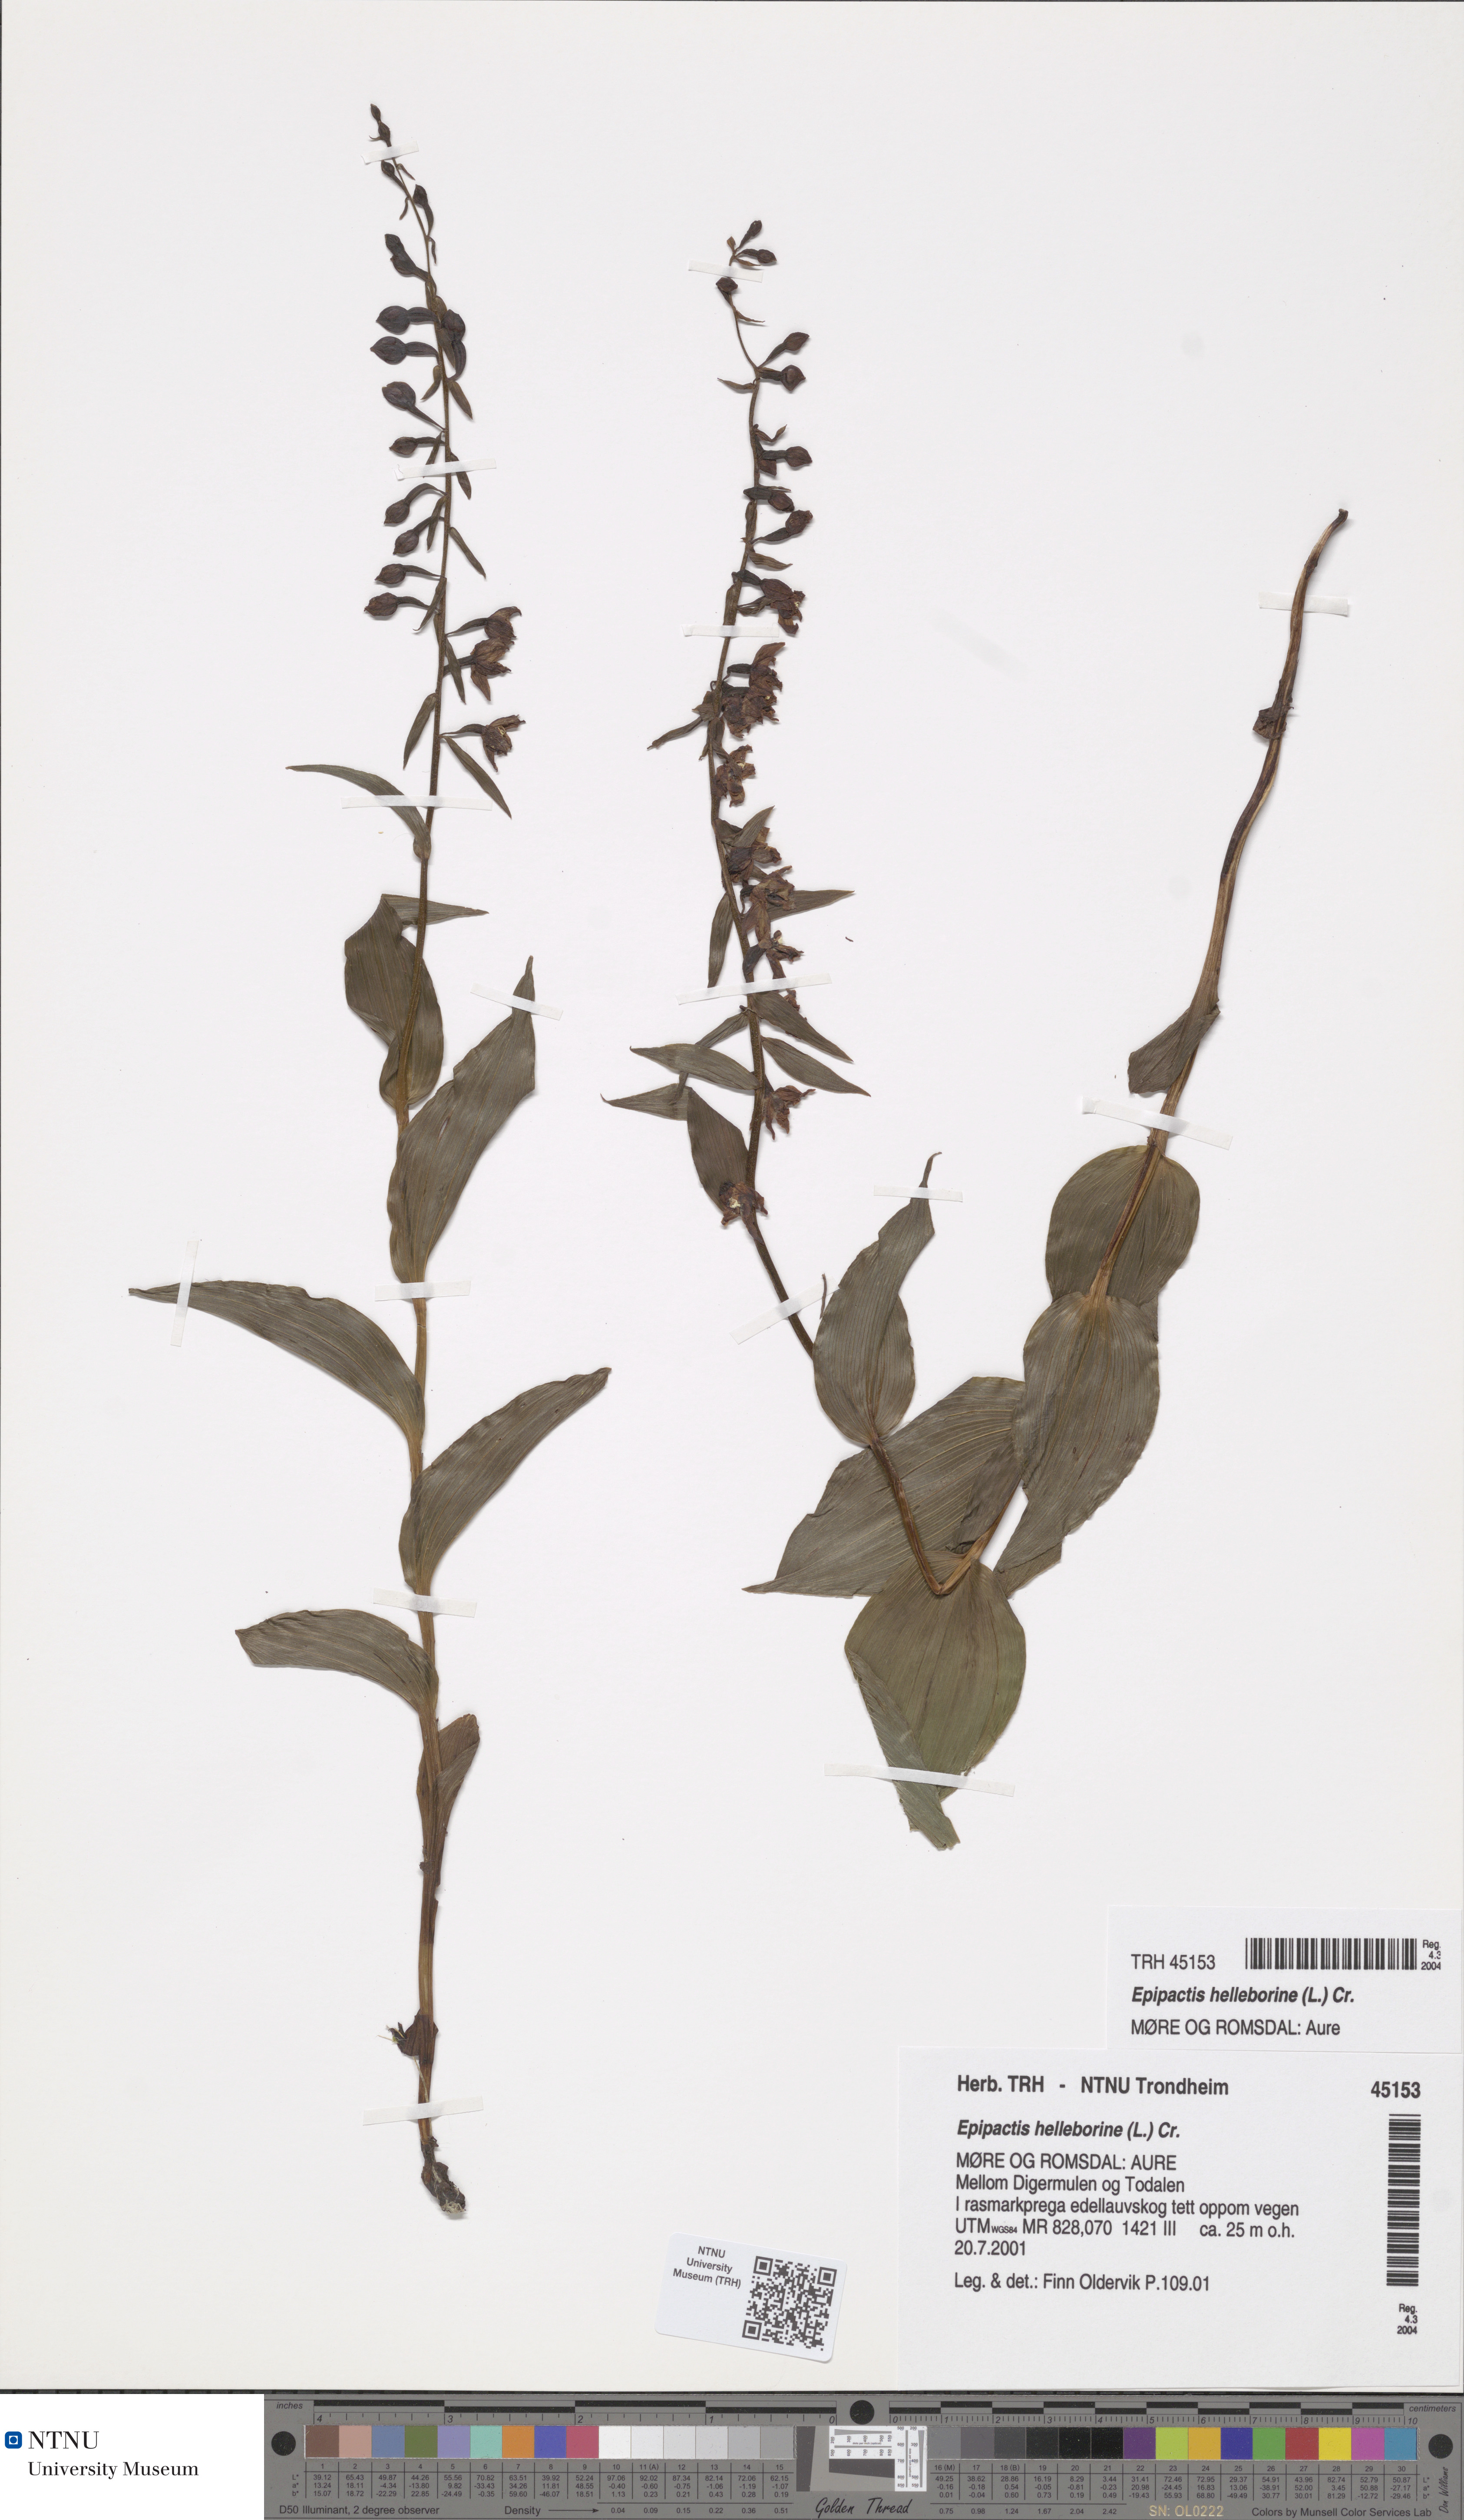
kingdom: Plantae
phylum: Tracheophyta
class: Liliopsida
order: Asparagales
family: Orchidaceae
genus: Epipactis
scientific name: Epipactis helleborine
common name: Broad-leaved helleborine
